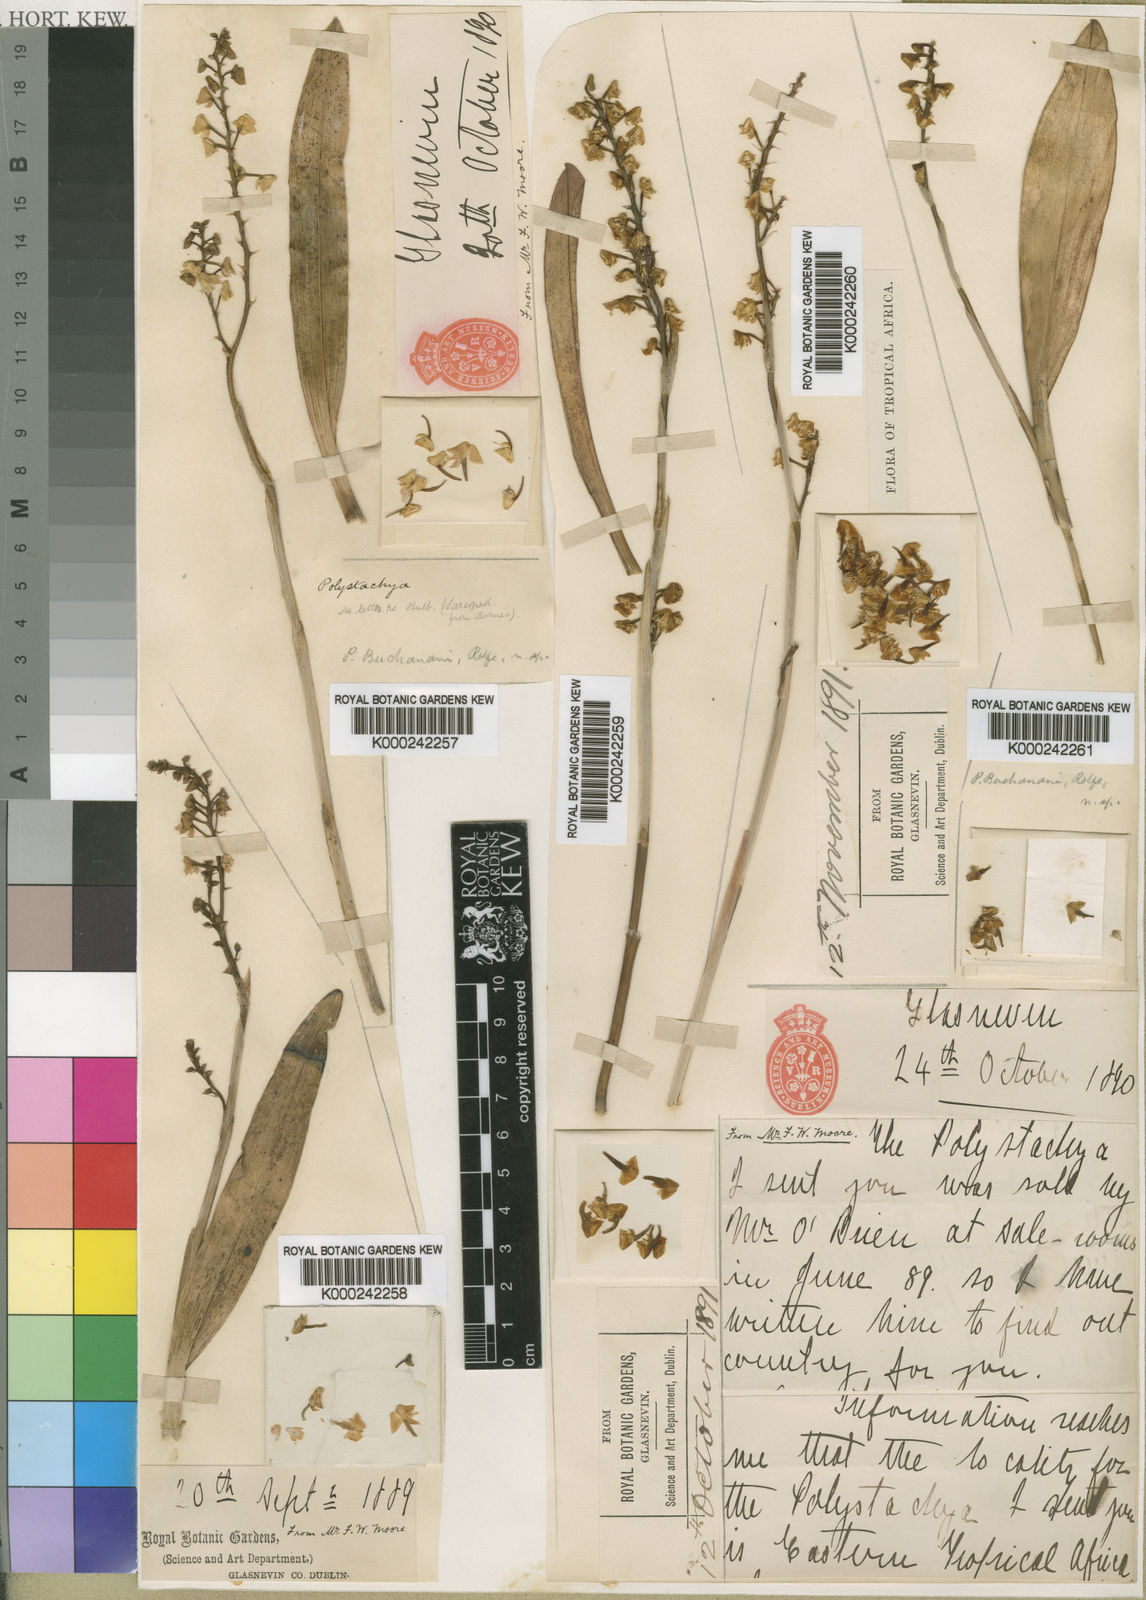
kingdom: Plantae
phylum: Tracheophyta
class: Liliopsida
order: Asparagales
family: Orchidaceae
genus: Polystachya
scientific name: Polystachya concreta
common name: Greater yellowspike orchid
